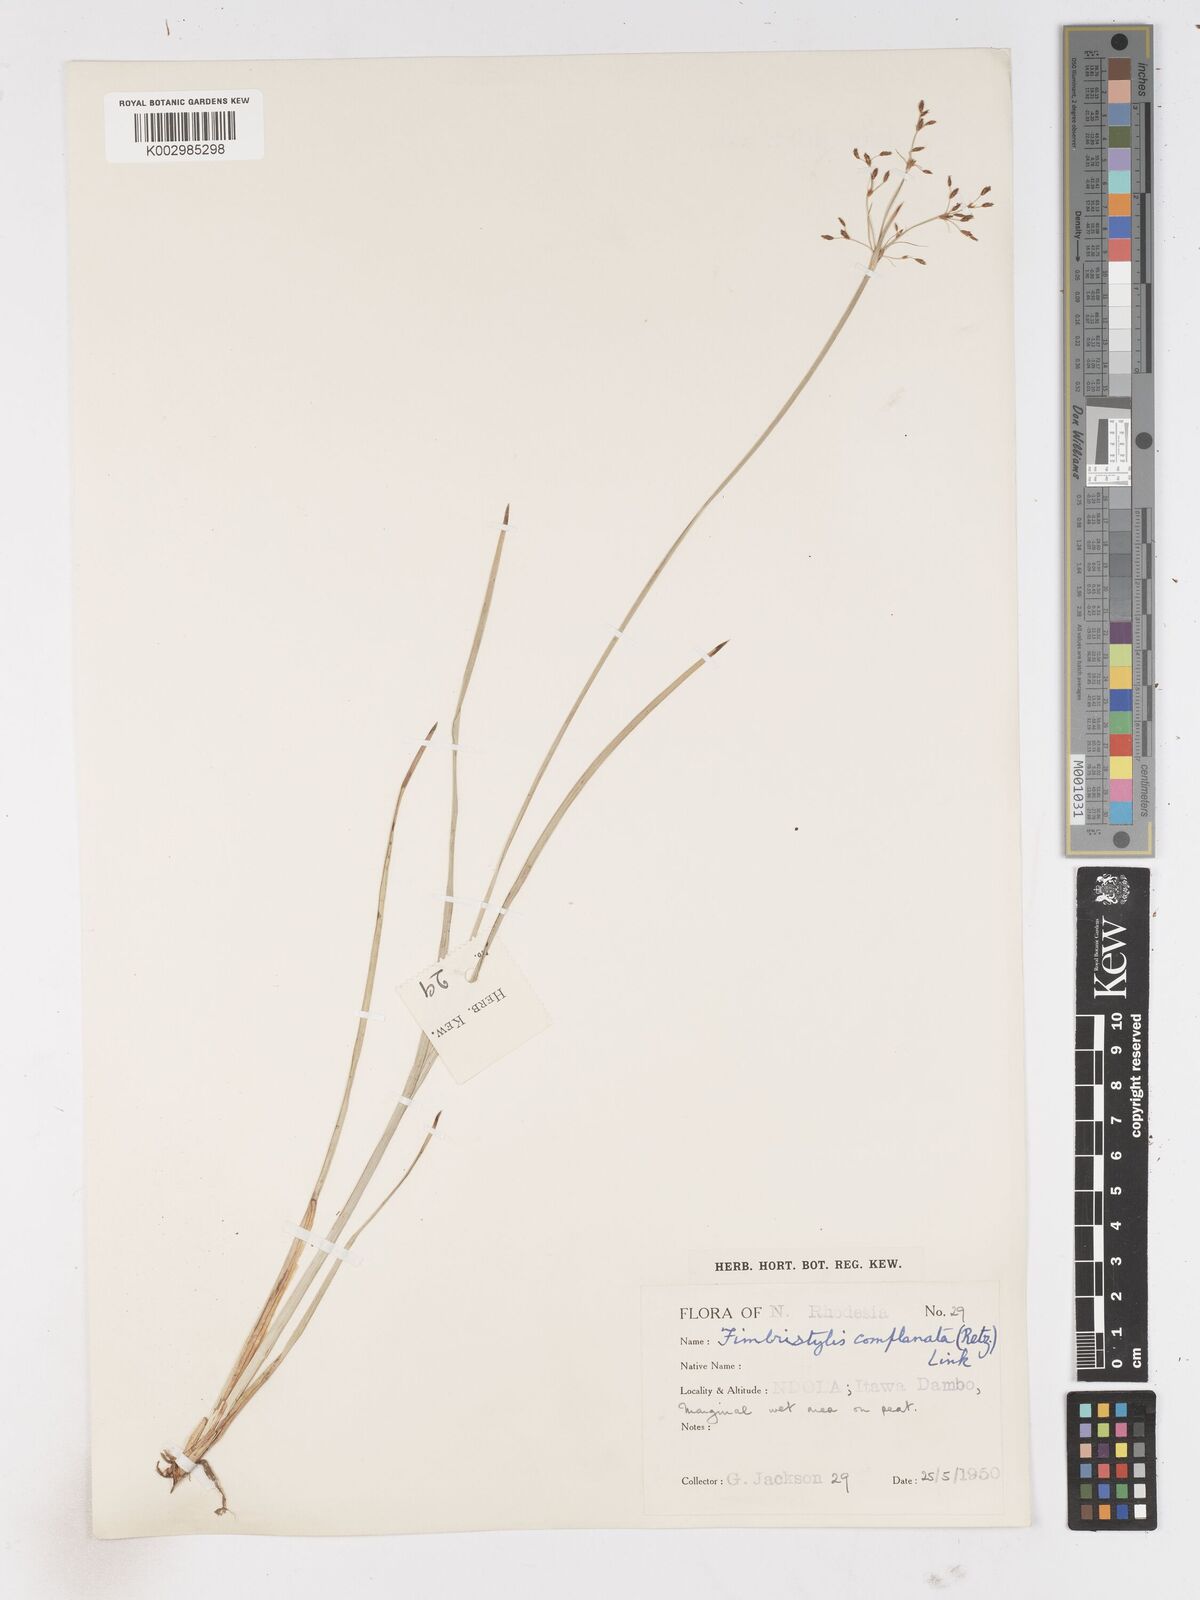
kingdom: Plantae
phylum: Tracheophyta
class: Liliopsida
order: Poales
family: Cyperaceae
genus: Fimbristylis
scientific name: Fimbristylis complanata
